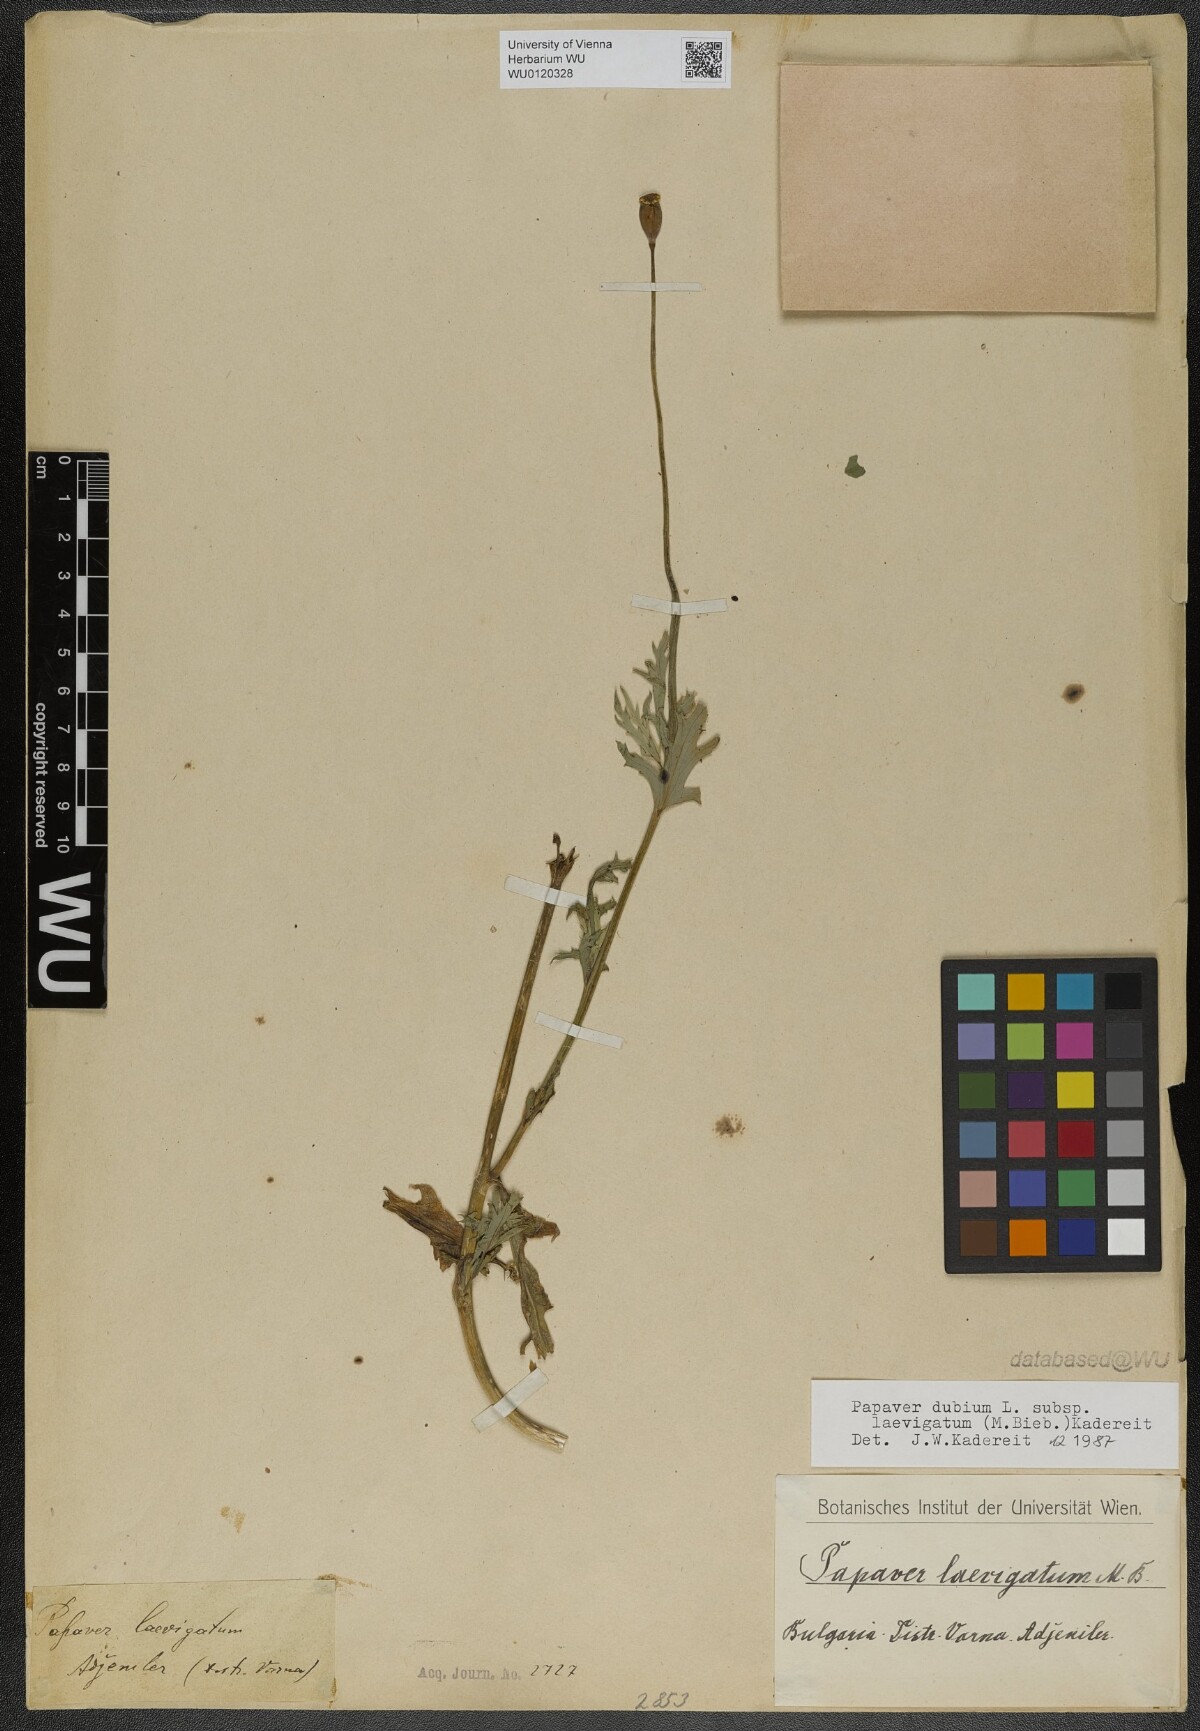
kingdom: Plantae
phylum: Tracheophyta
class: Magnoliopsida
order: Ranunculales
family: Papaveraceae
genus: Papaver
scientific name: Papaver laevigatum
